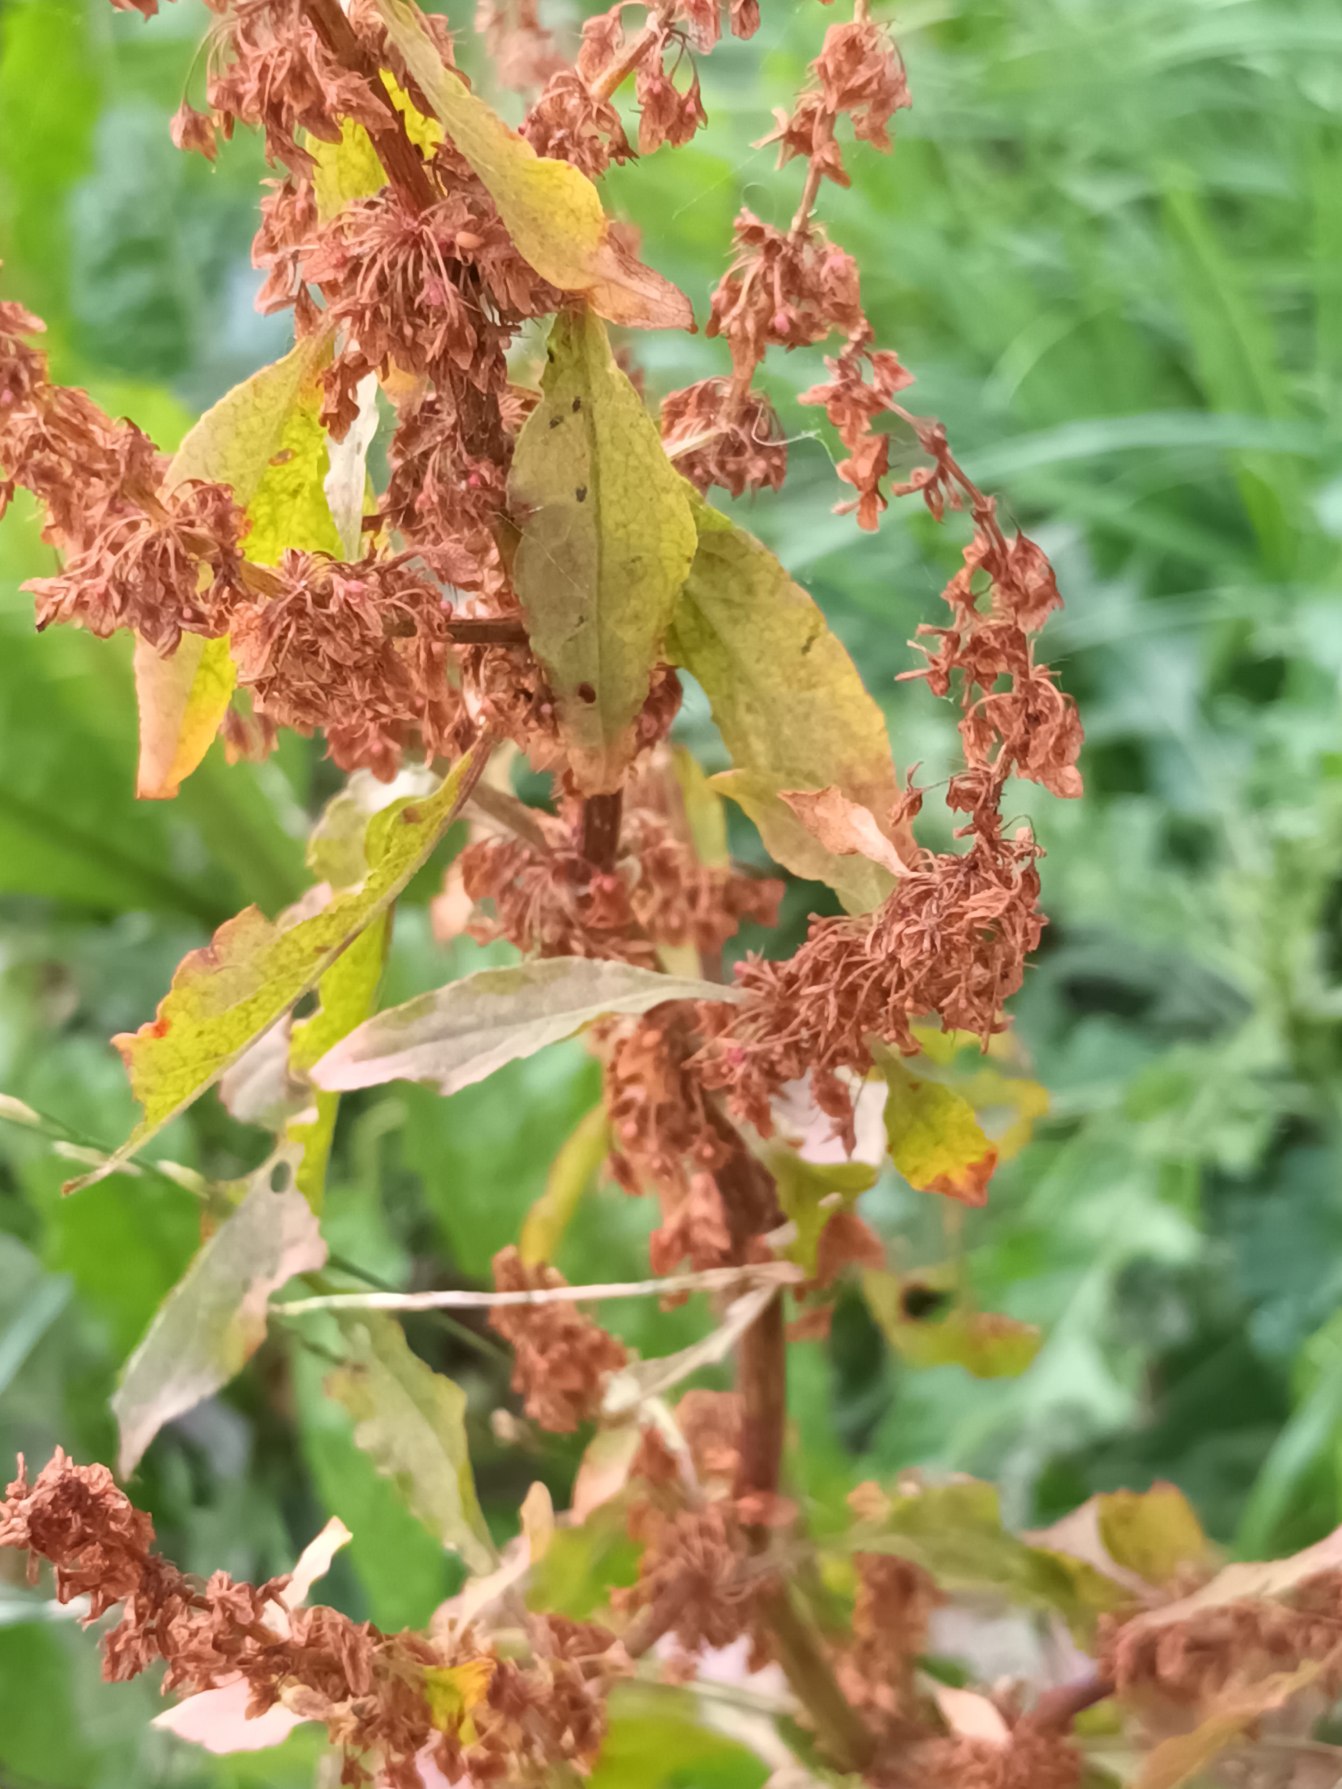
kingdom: Plantae
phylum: Tracheophyta
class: Magnoliopsida
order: Caryophyllales
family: Polygonaceae
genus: Rumex
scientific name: Rumex obtusifolius
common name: Butbladet skræppe
